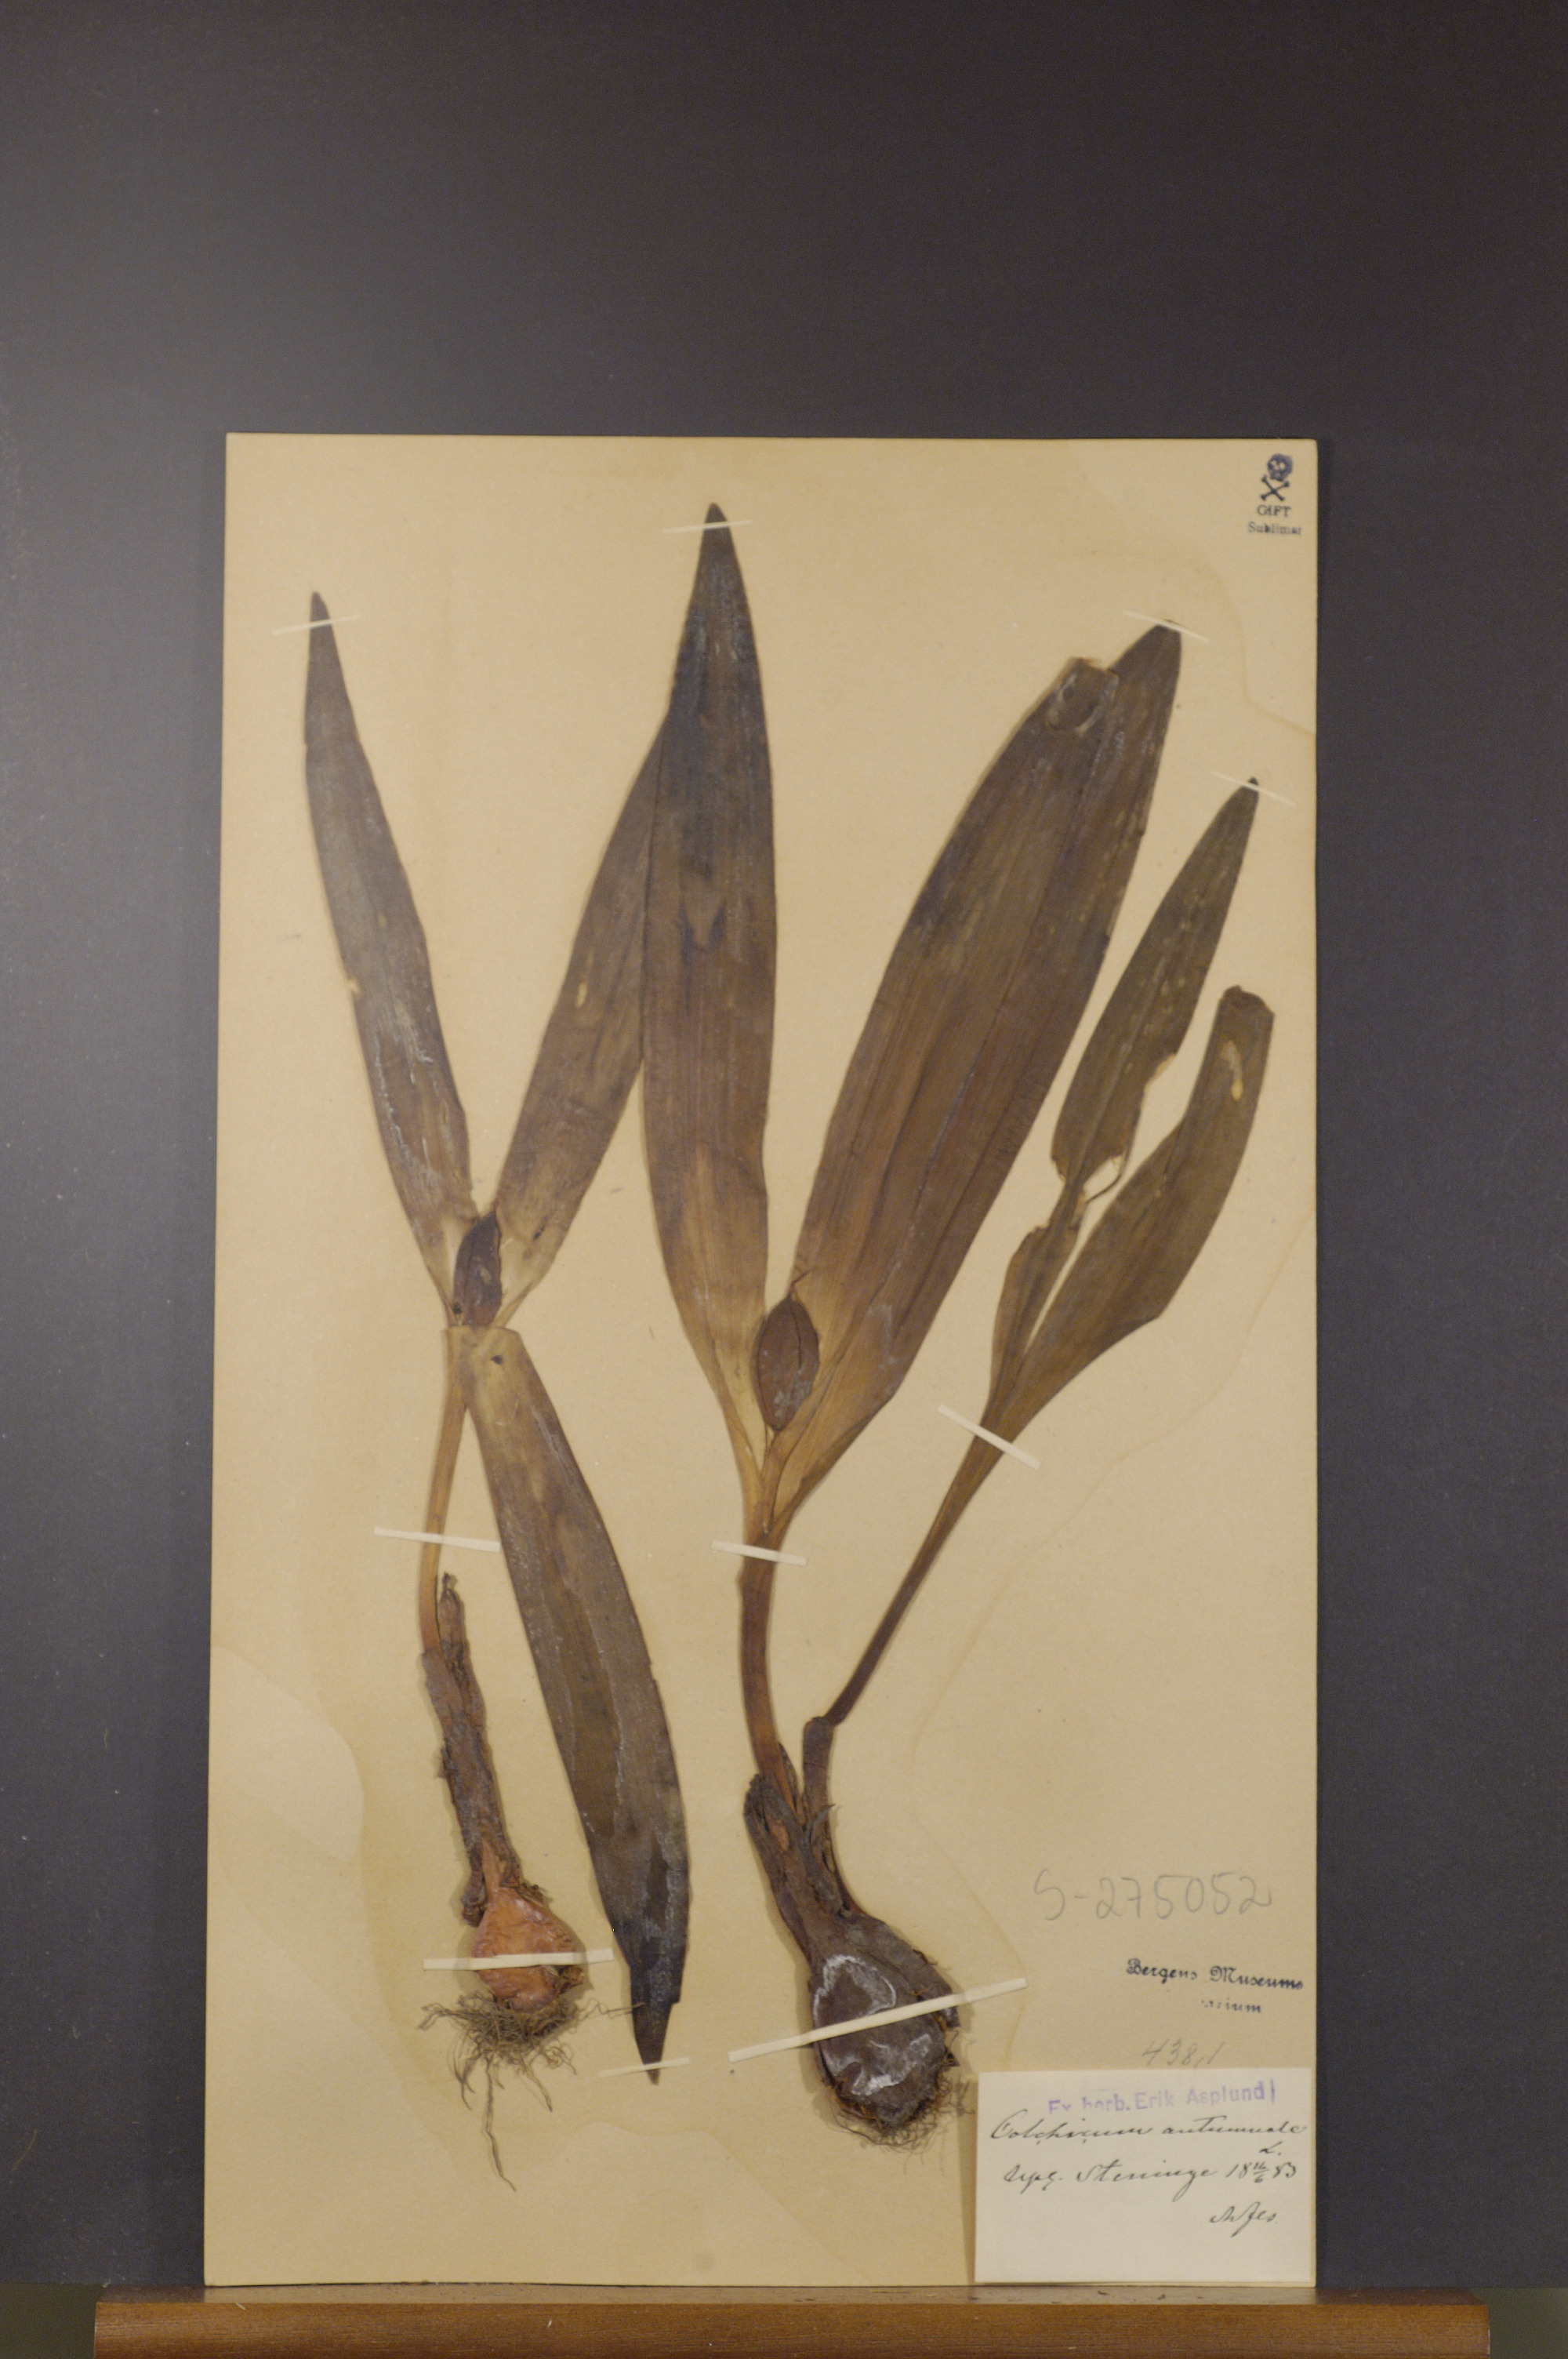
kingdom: Plantae
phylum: Tracheophyta
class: Liliopsida
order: Liliales
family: Colchicaceae
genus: Colchicum
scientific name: Colchicum autumnale
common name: Autumn crocus
